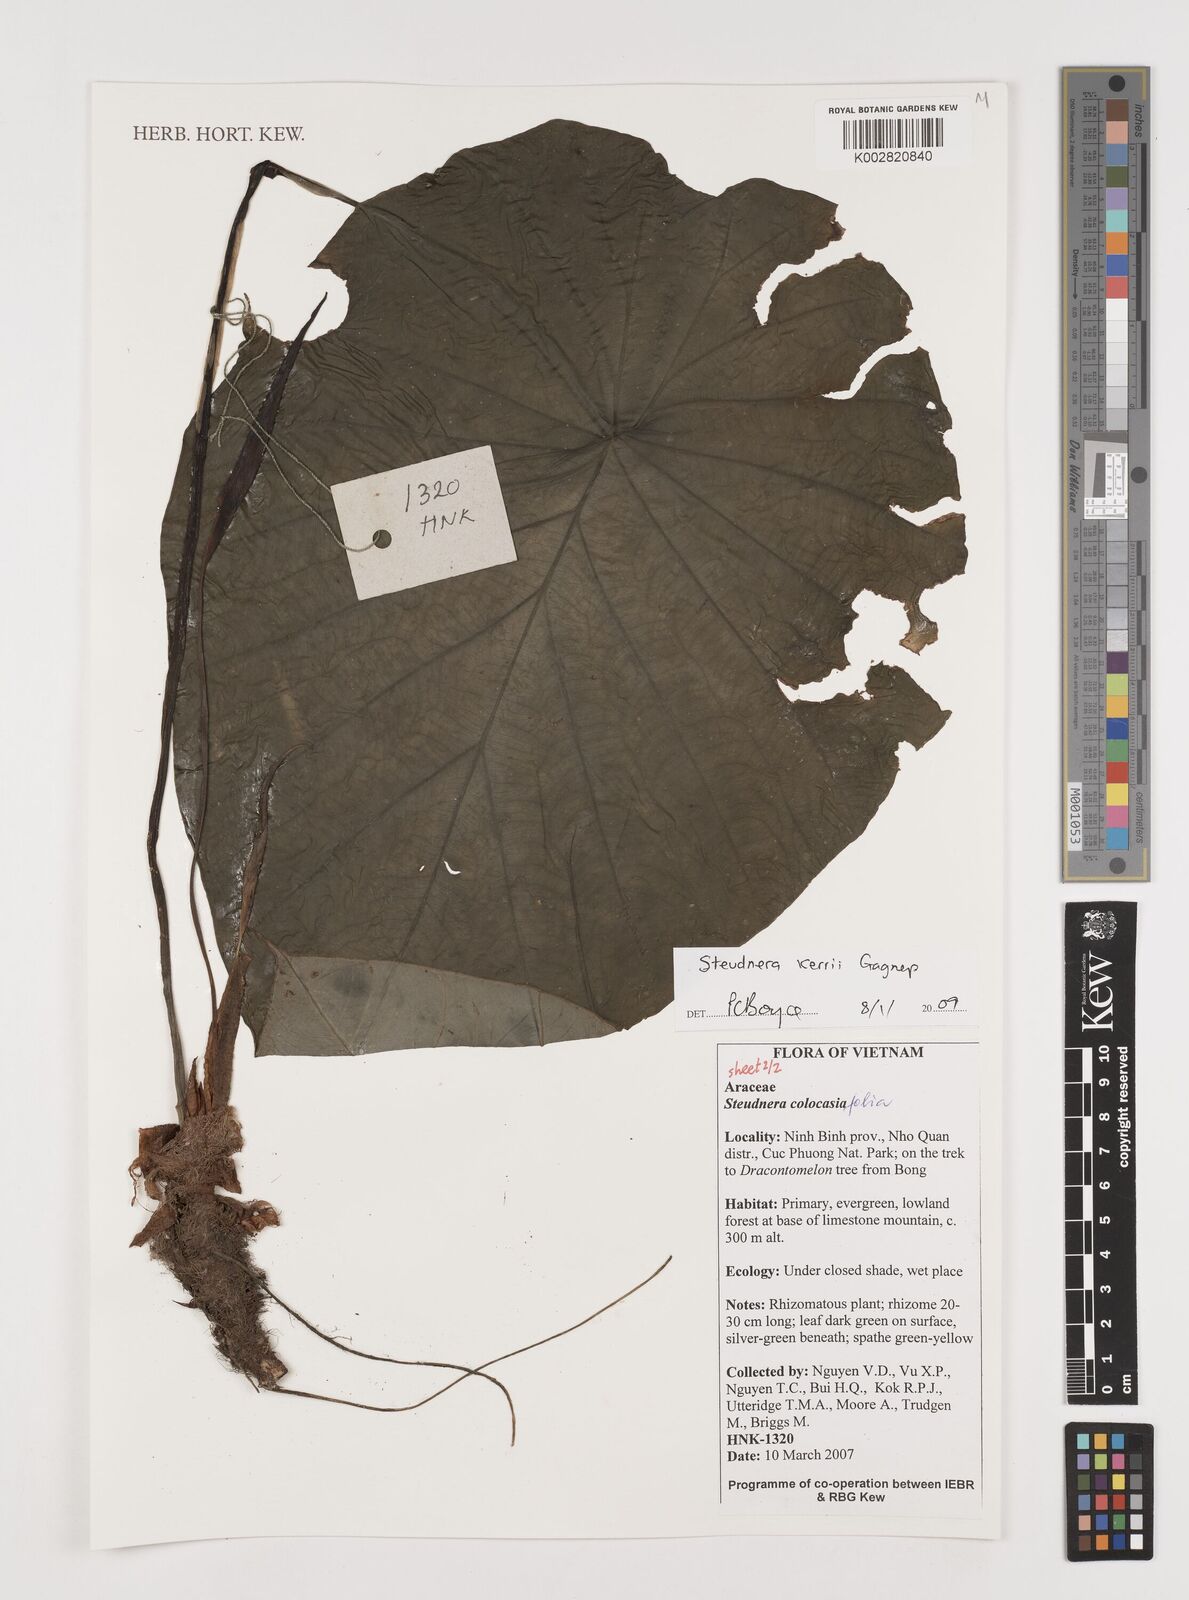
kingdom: Plantae
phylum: Tracheophyta
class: Liliopsida
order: Alismatales
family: Araceae
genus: Steudnera
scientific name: Steudnera kerrii
